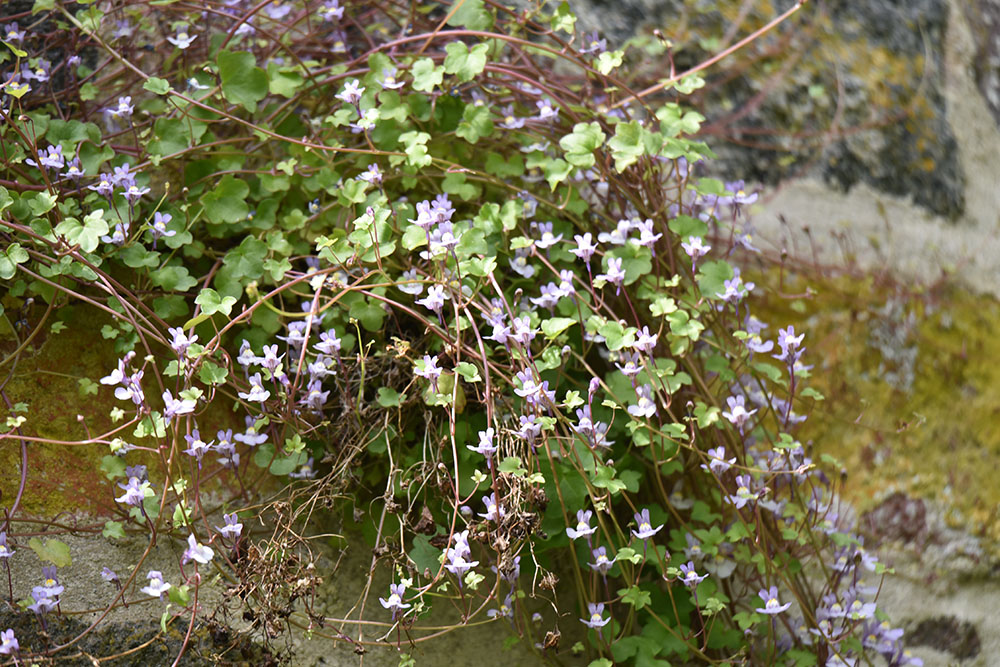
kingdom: Plantae
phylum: Tracheophyta
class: Magnoliopsida
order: Lamiales
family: Plantaginaceae
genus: Cymbalaria
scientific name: Cymbalaria muralis
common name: Ivy-leaved toadflax
